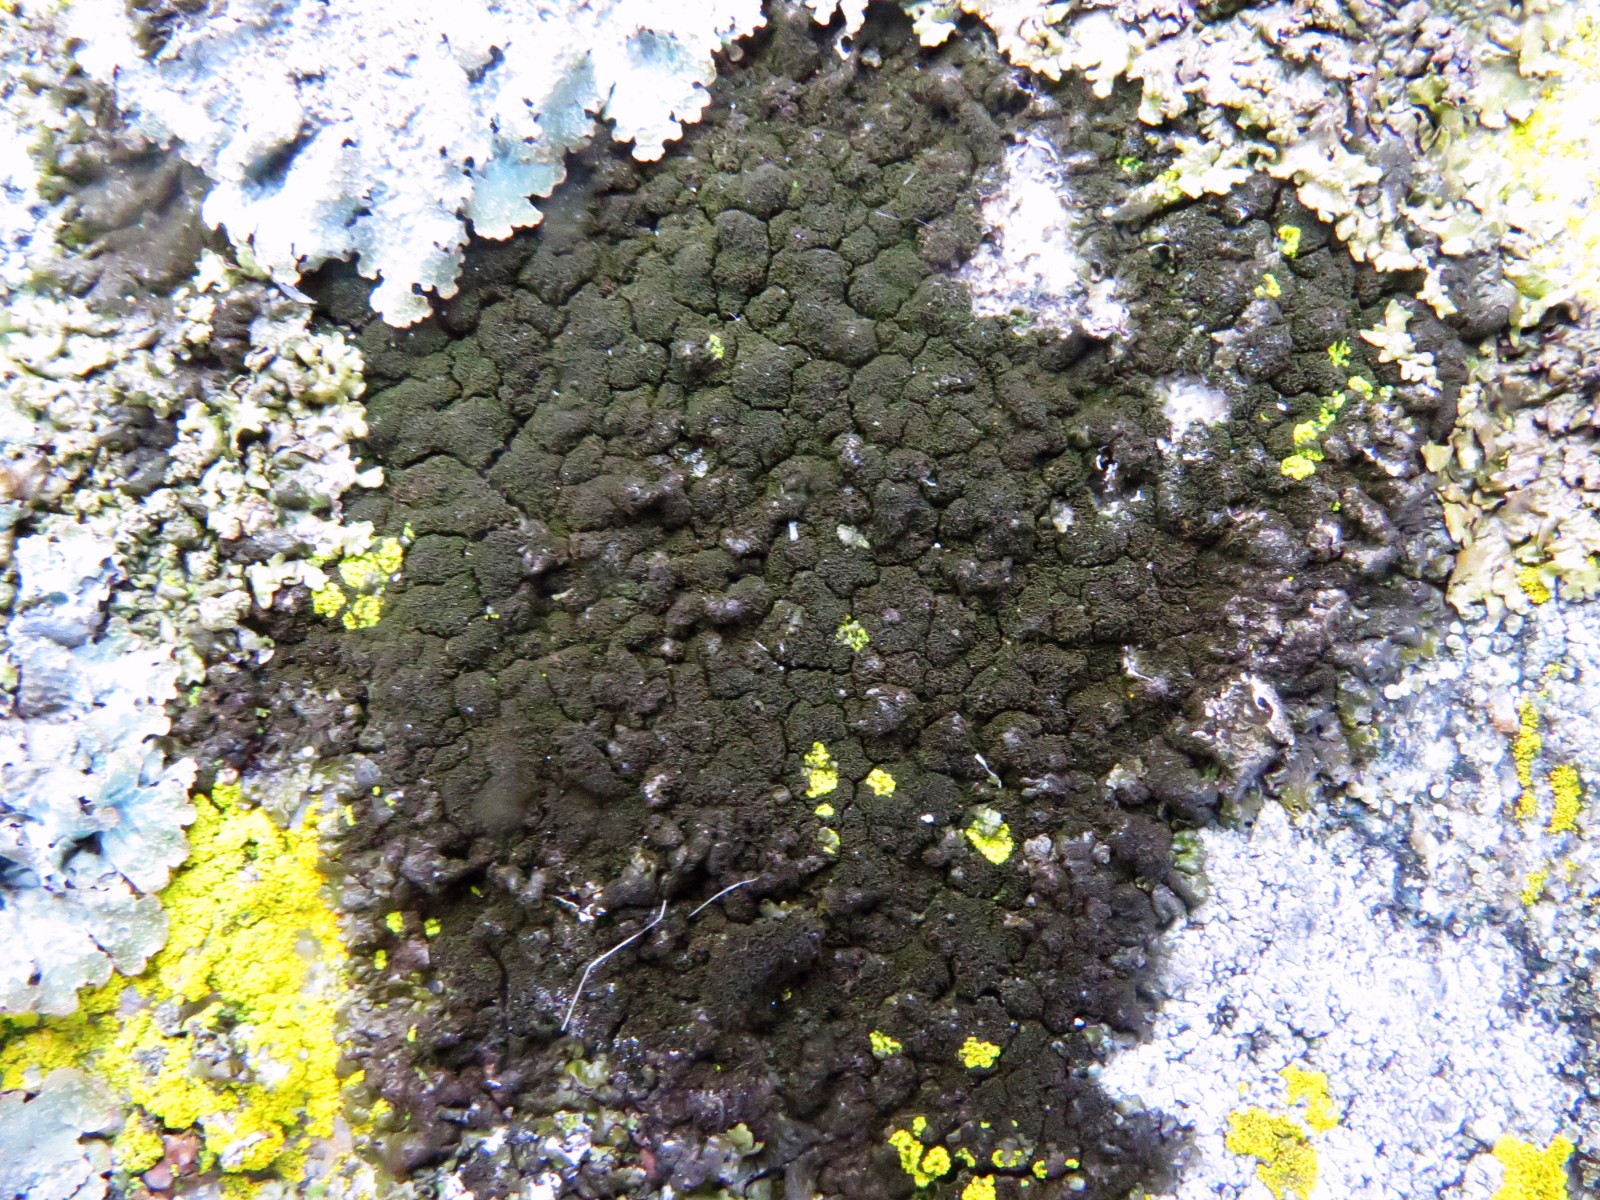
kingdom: Fungi
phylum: Ascomycota
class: Lecanoromycetes
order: Lecanorales
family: Parmeliaceae
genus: Melanelixia
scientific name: Melanelixia fuliginosa
